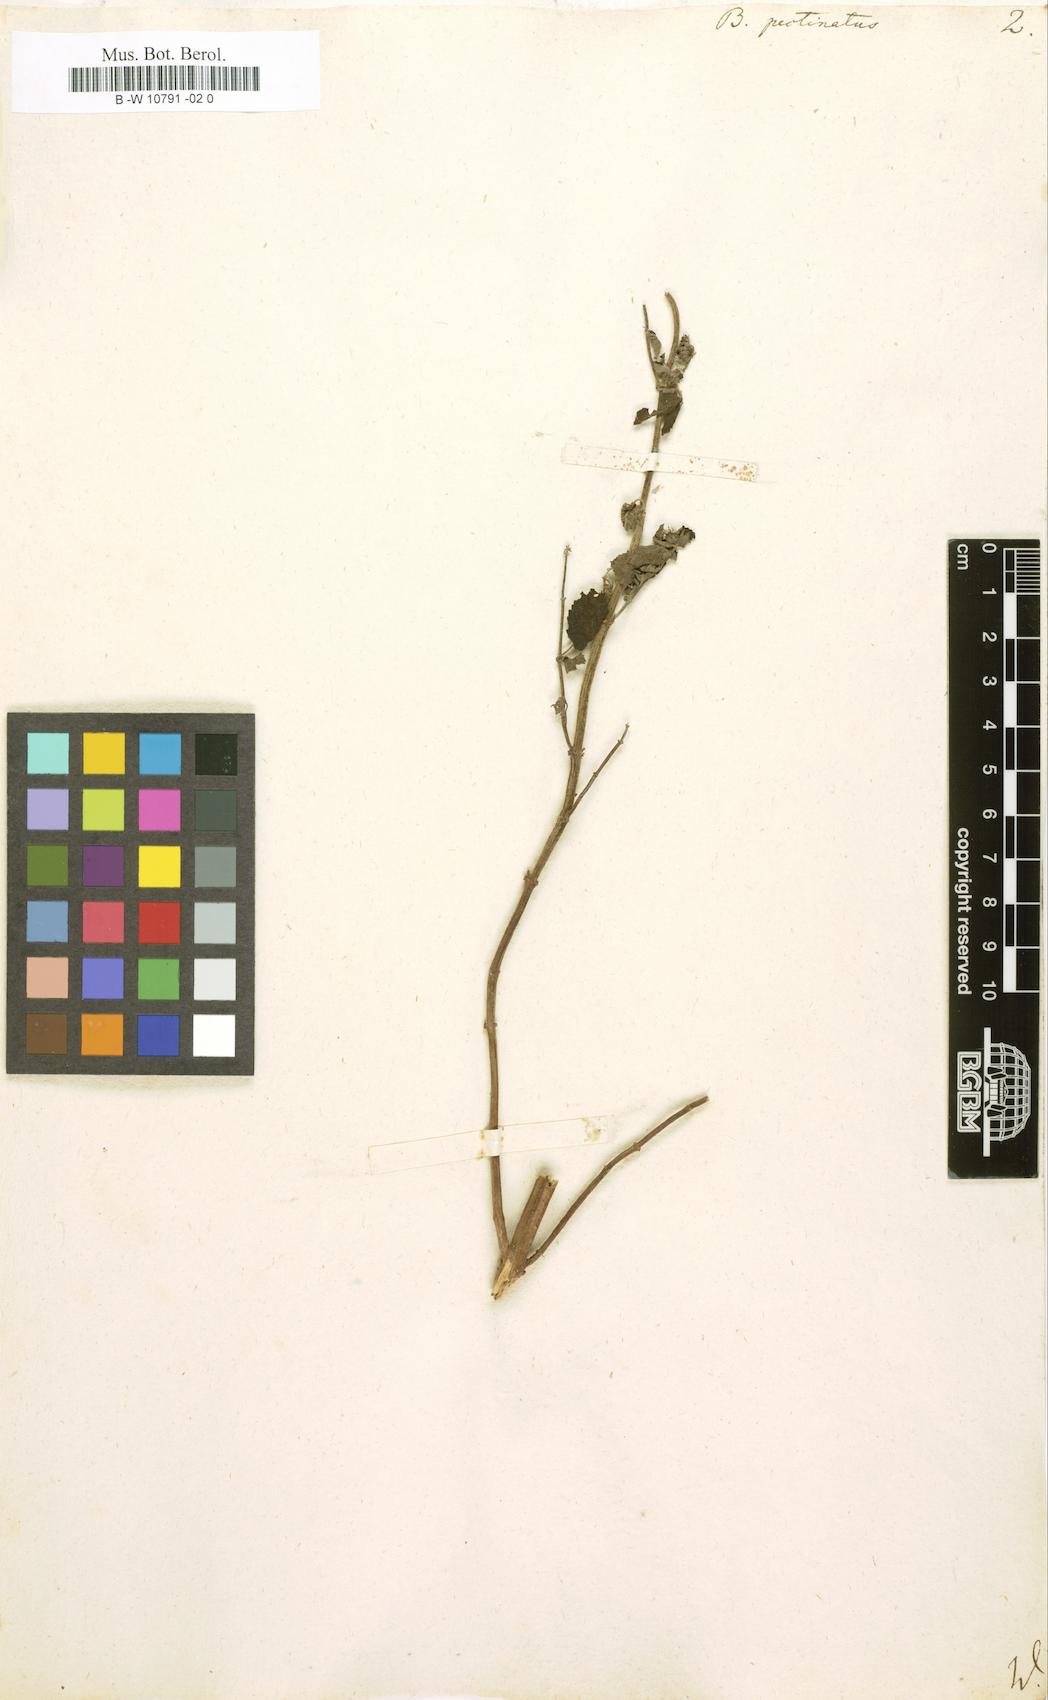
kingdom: Plantae
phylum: Tracheophyta
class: Magnoliopsida
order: Lamiales
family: Lamiaceae
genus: Mesosphaerum
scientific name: Mesosphaerum pectinatum
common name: Comb hyptis
